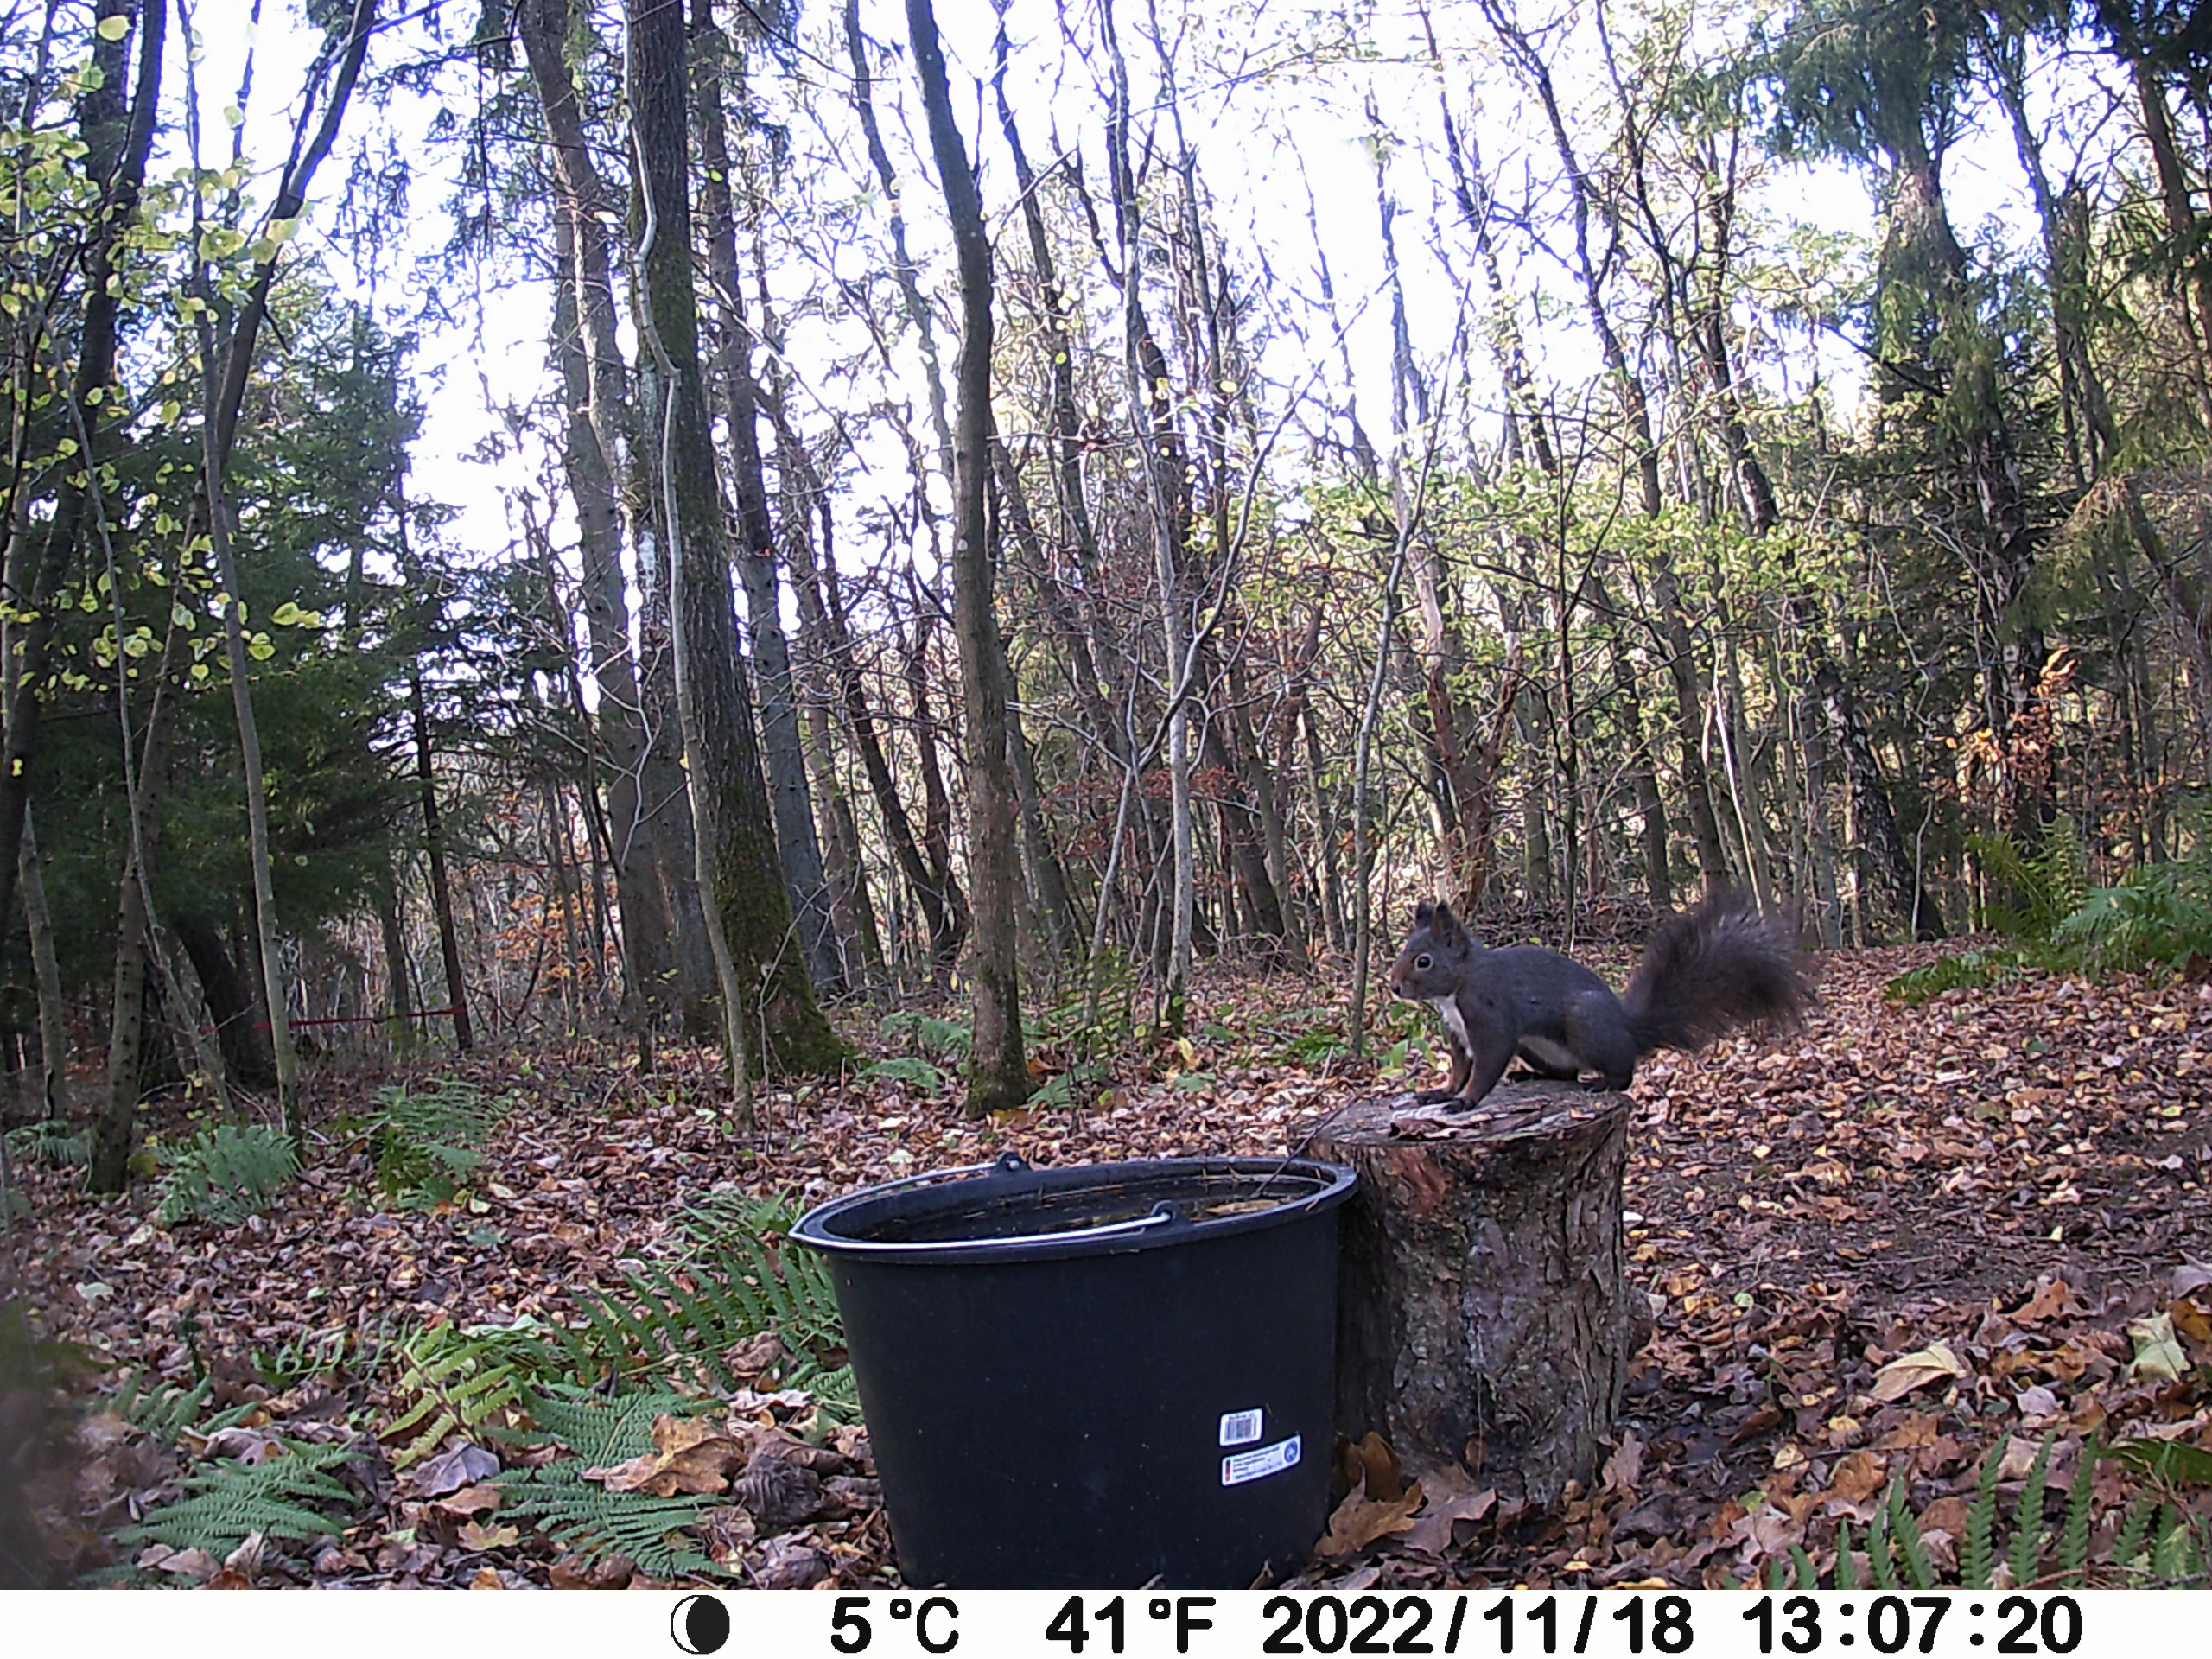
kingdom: Animalia
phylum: Chordata
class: Mammalia
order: Rodentia
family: Sciuridae
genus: Sciurus
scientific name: Sciurus vulgaris
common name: Egern
